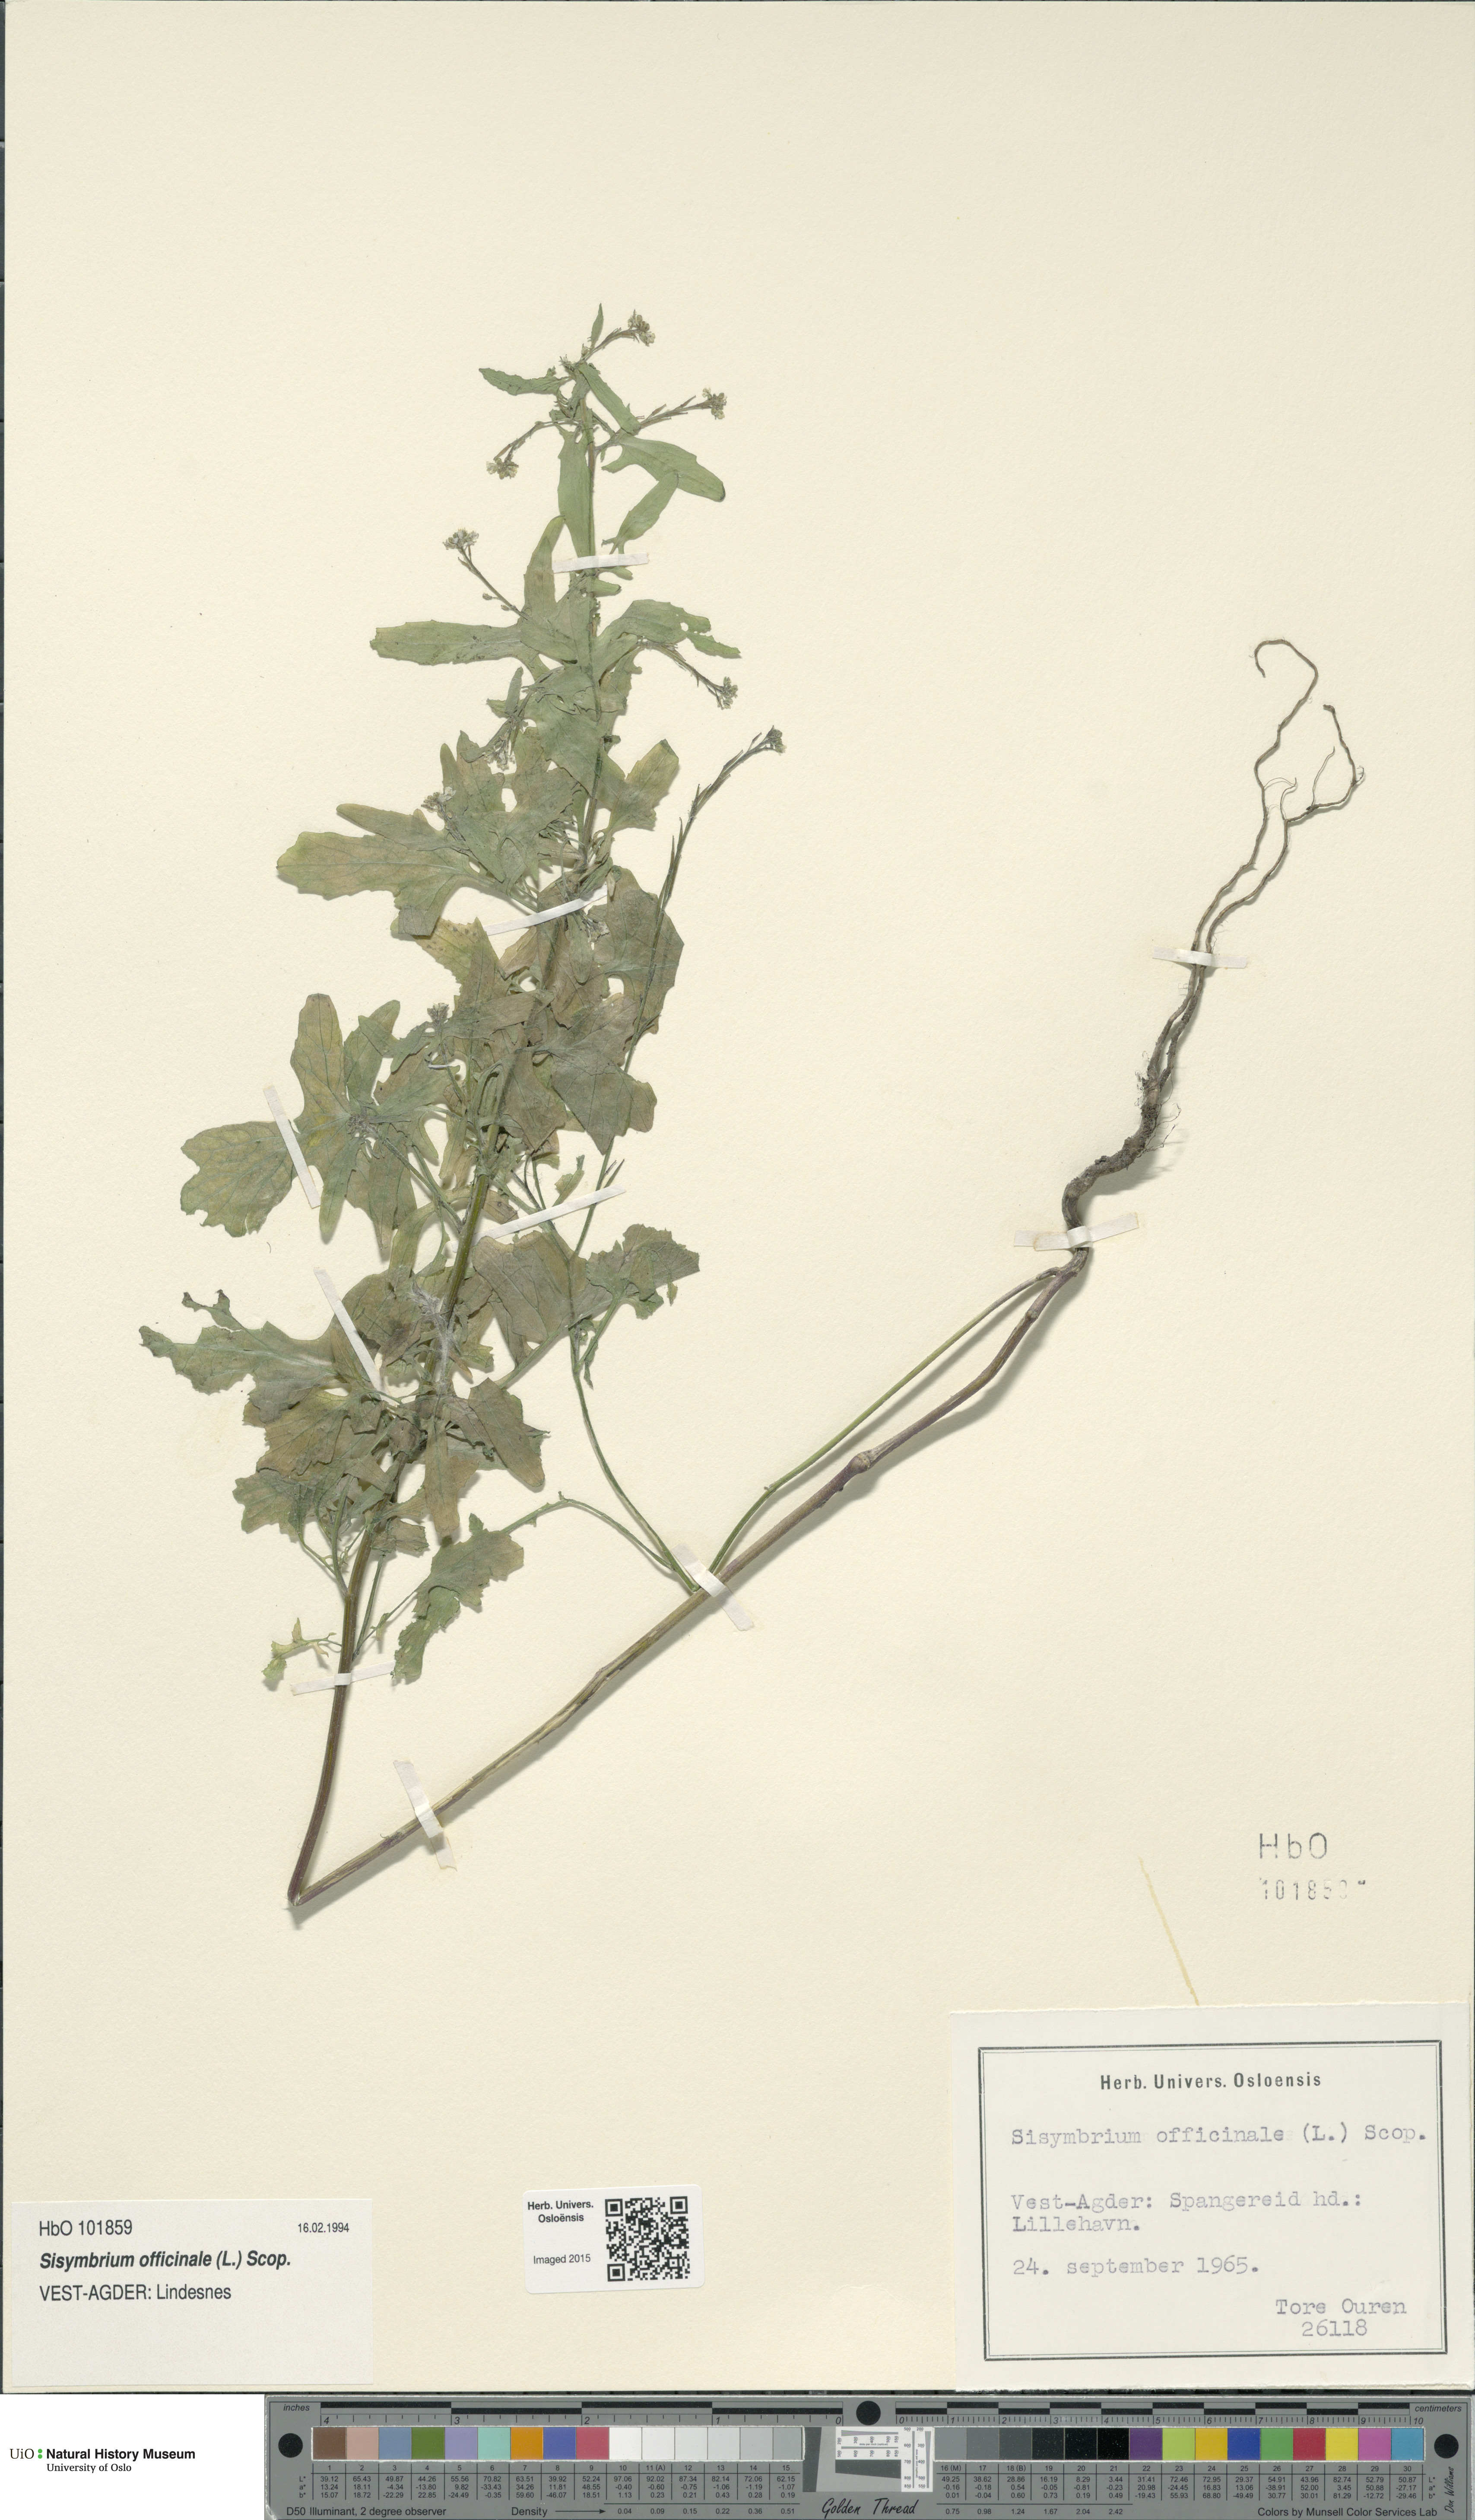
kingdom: Plantae
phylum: Tracheophyta
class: Magnoliopsida
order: Brassicales
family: Brassicaceae
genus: Sisymbrium
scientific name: Sisymbrium officinale
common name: Hedge mustard
